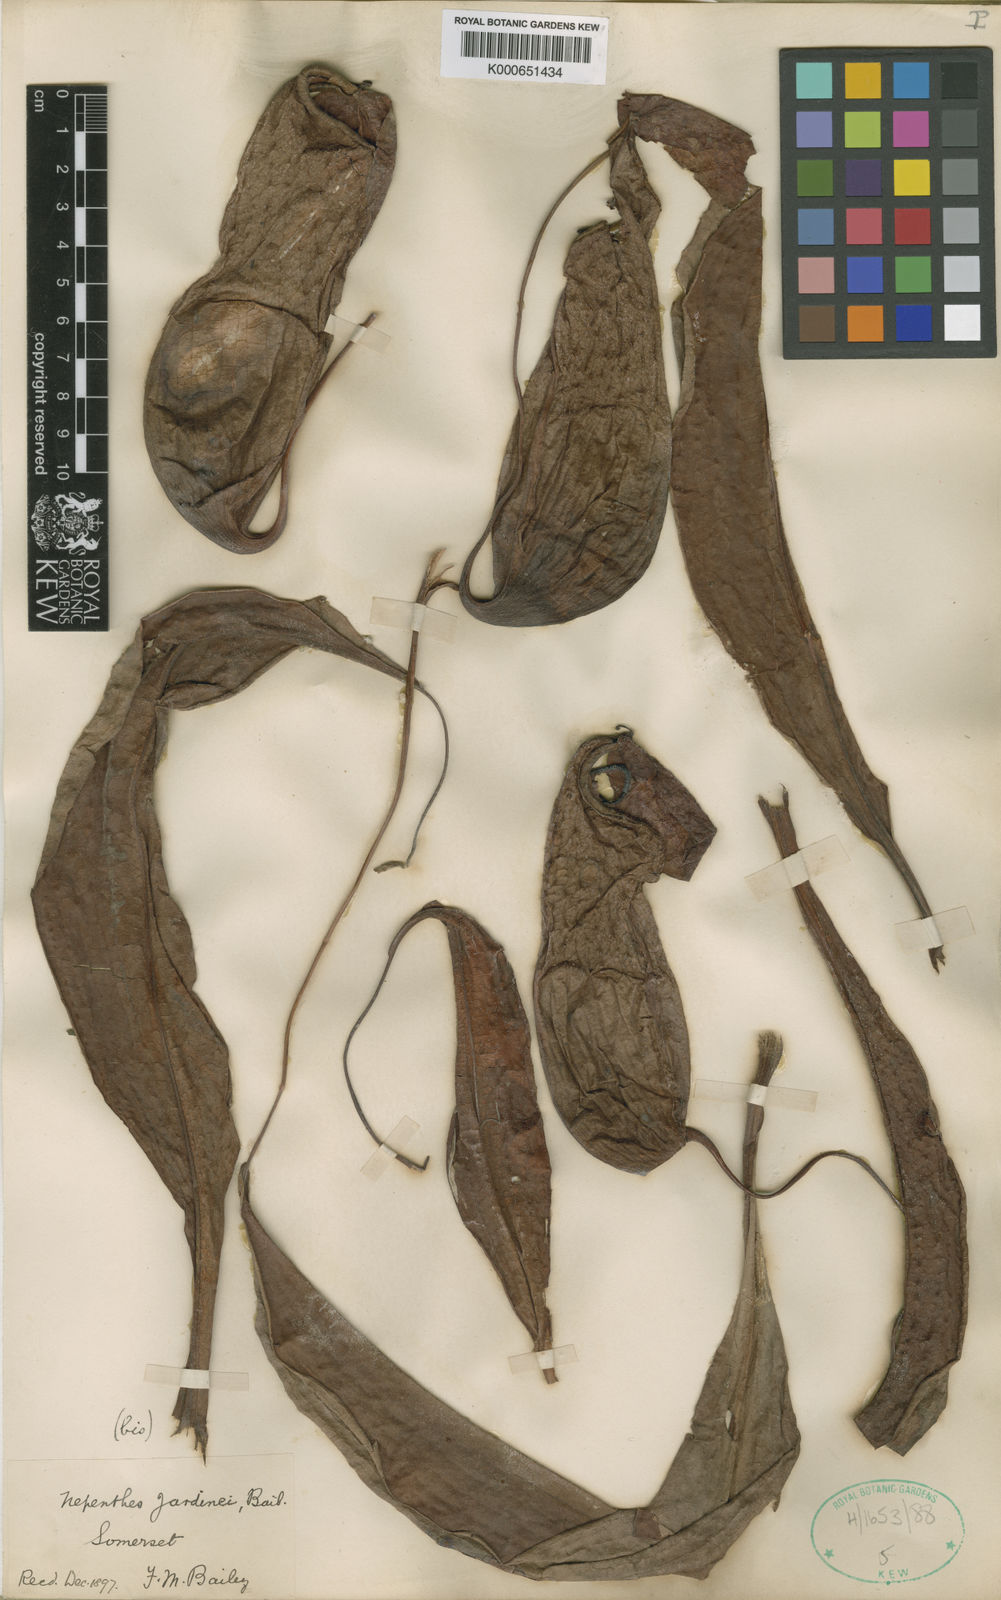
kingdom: Plantae
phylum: Tracheophyta
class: Magnoliopsida
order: Caryophyllales
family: Nepenthaceae
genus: Nepenthes
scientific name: Nepenthes mirabilis
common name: Tropical pitcherplant
